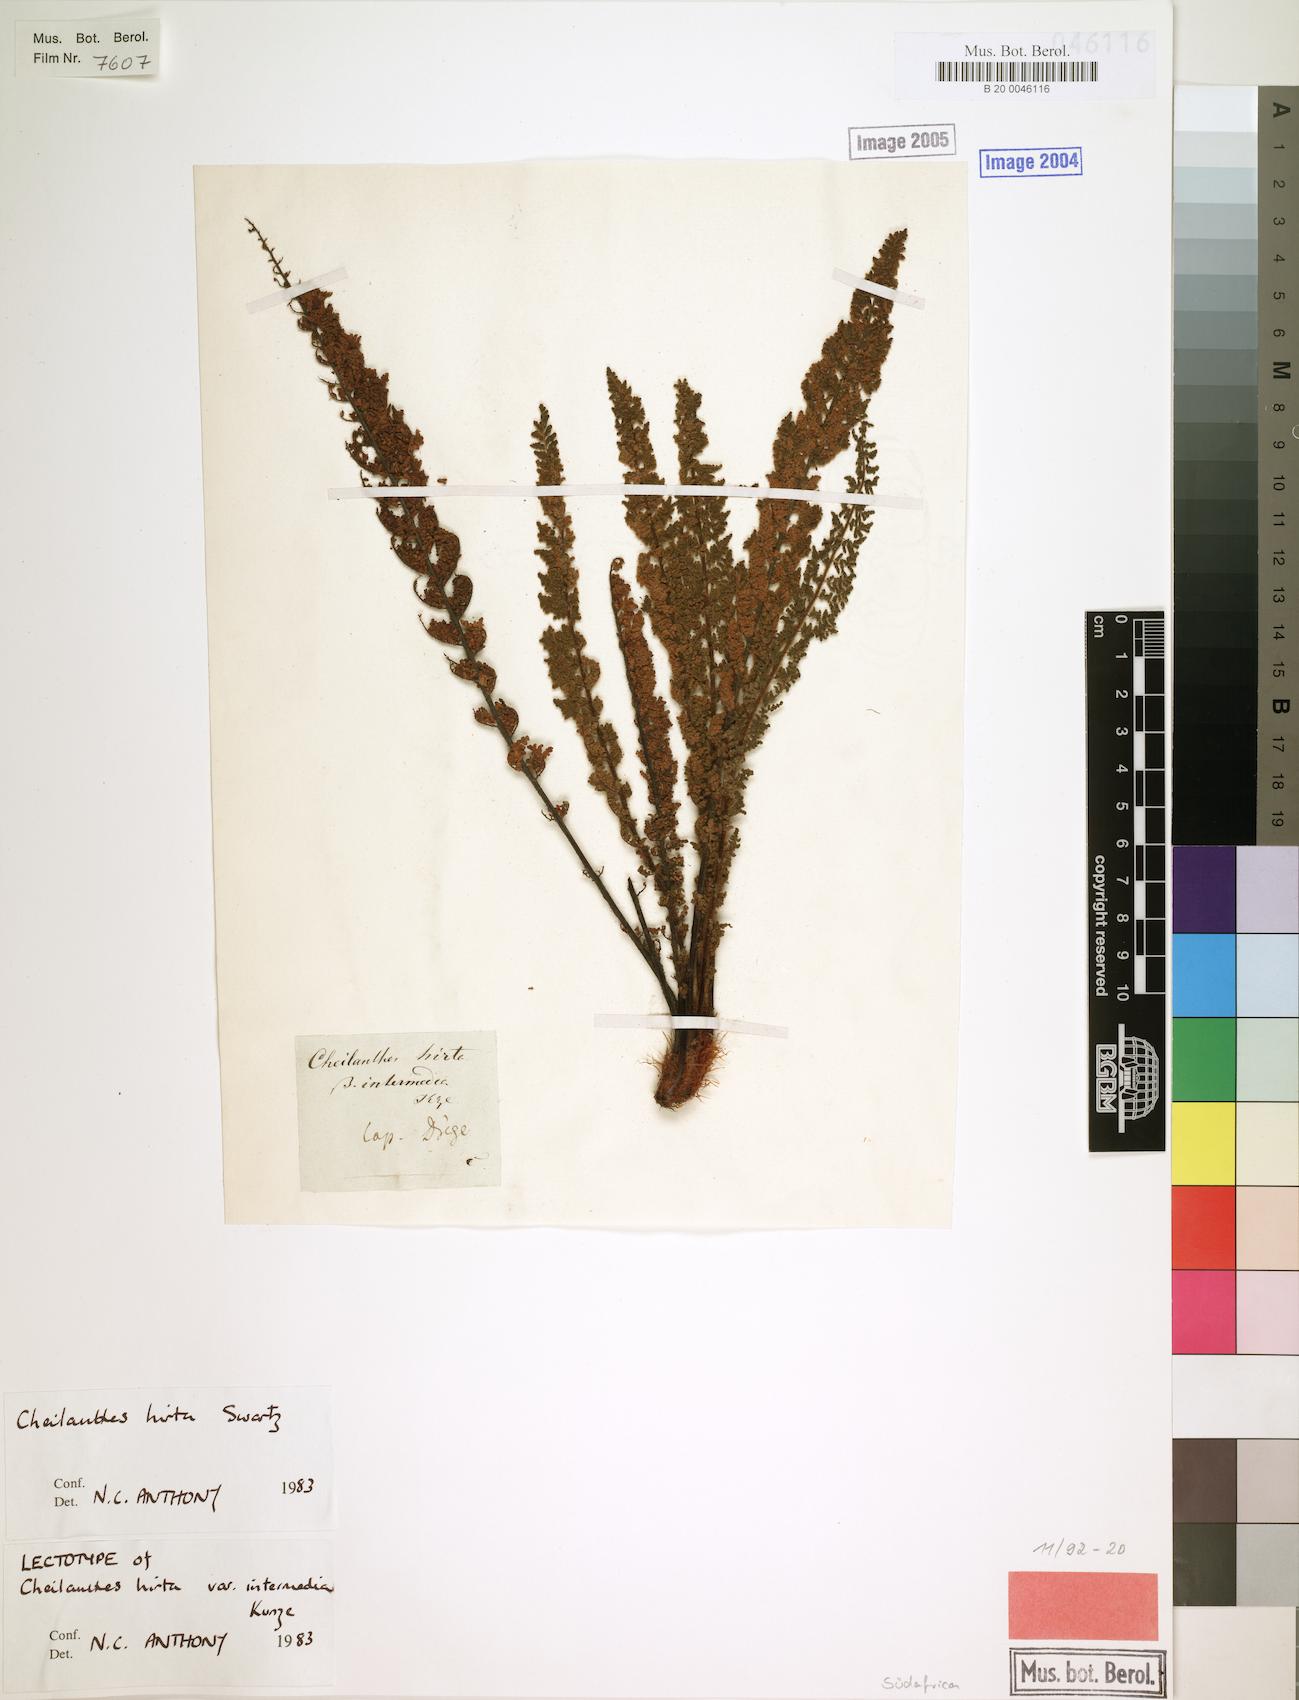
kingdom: Plantae
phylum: Tracheophyta
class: Polypodiopsida
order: Polypodiales
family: Pteridaceae
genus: Cheilanthes
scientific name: Cheilanthes hirta
